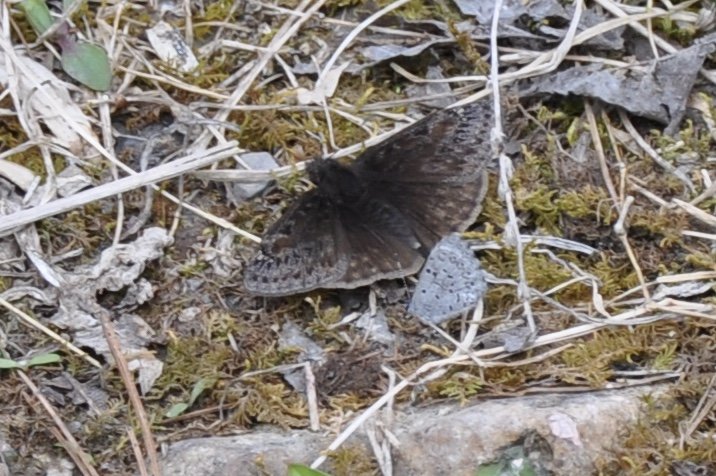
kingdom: Animalia
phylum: Arthropoda
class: Insecta
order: Lepidoptera
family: Lycaenidae
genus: Cyaniris
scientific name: Cyaniris neglecta
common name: Summer Azure
